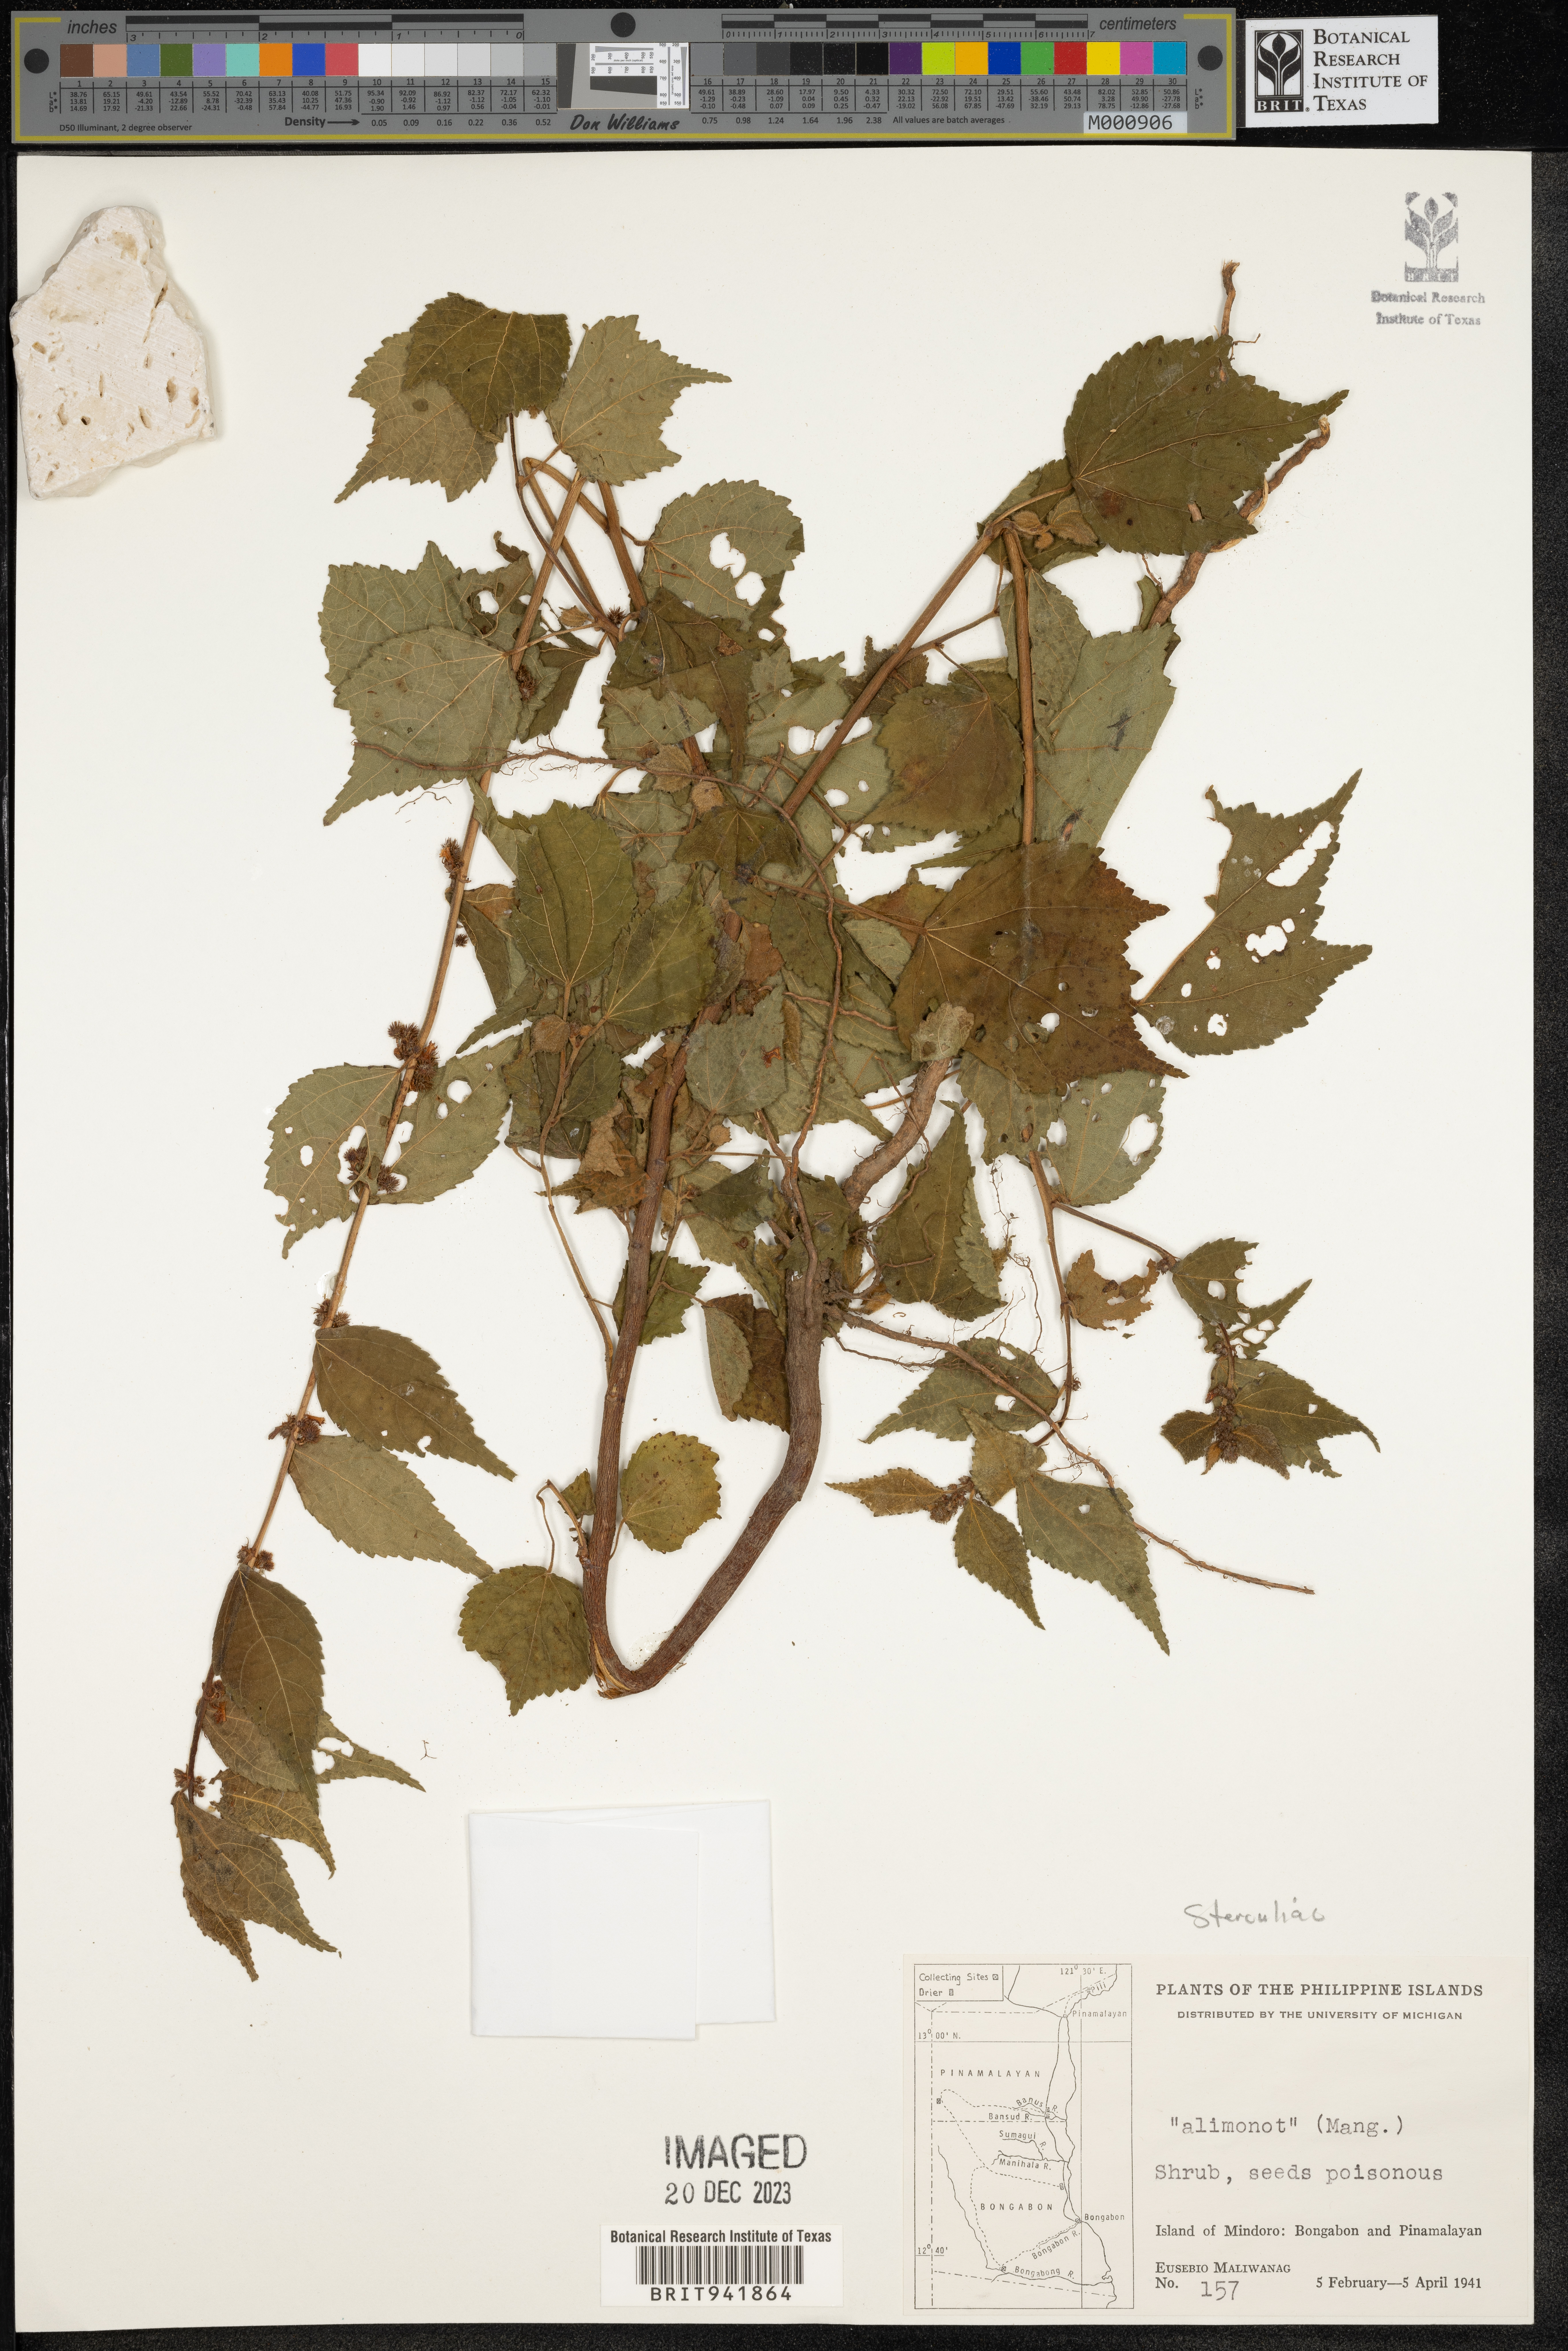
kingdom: Plantae
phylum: Tracheophyta
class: Magnoliopsida
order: Malvales
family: Malvaceae
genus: Sterculia
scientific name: Sterculia
